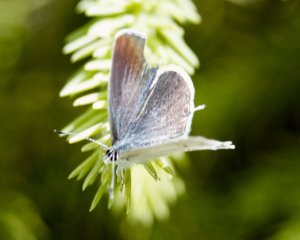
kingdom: Animalia
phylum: Arthropoda
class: Insecta
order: Lepidoptera
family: Lycaenidae
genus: Elkalyce
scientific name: Elkalyce amyntula
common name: Western Tailed-Blue
